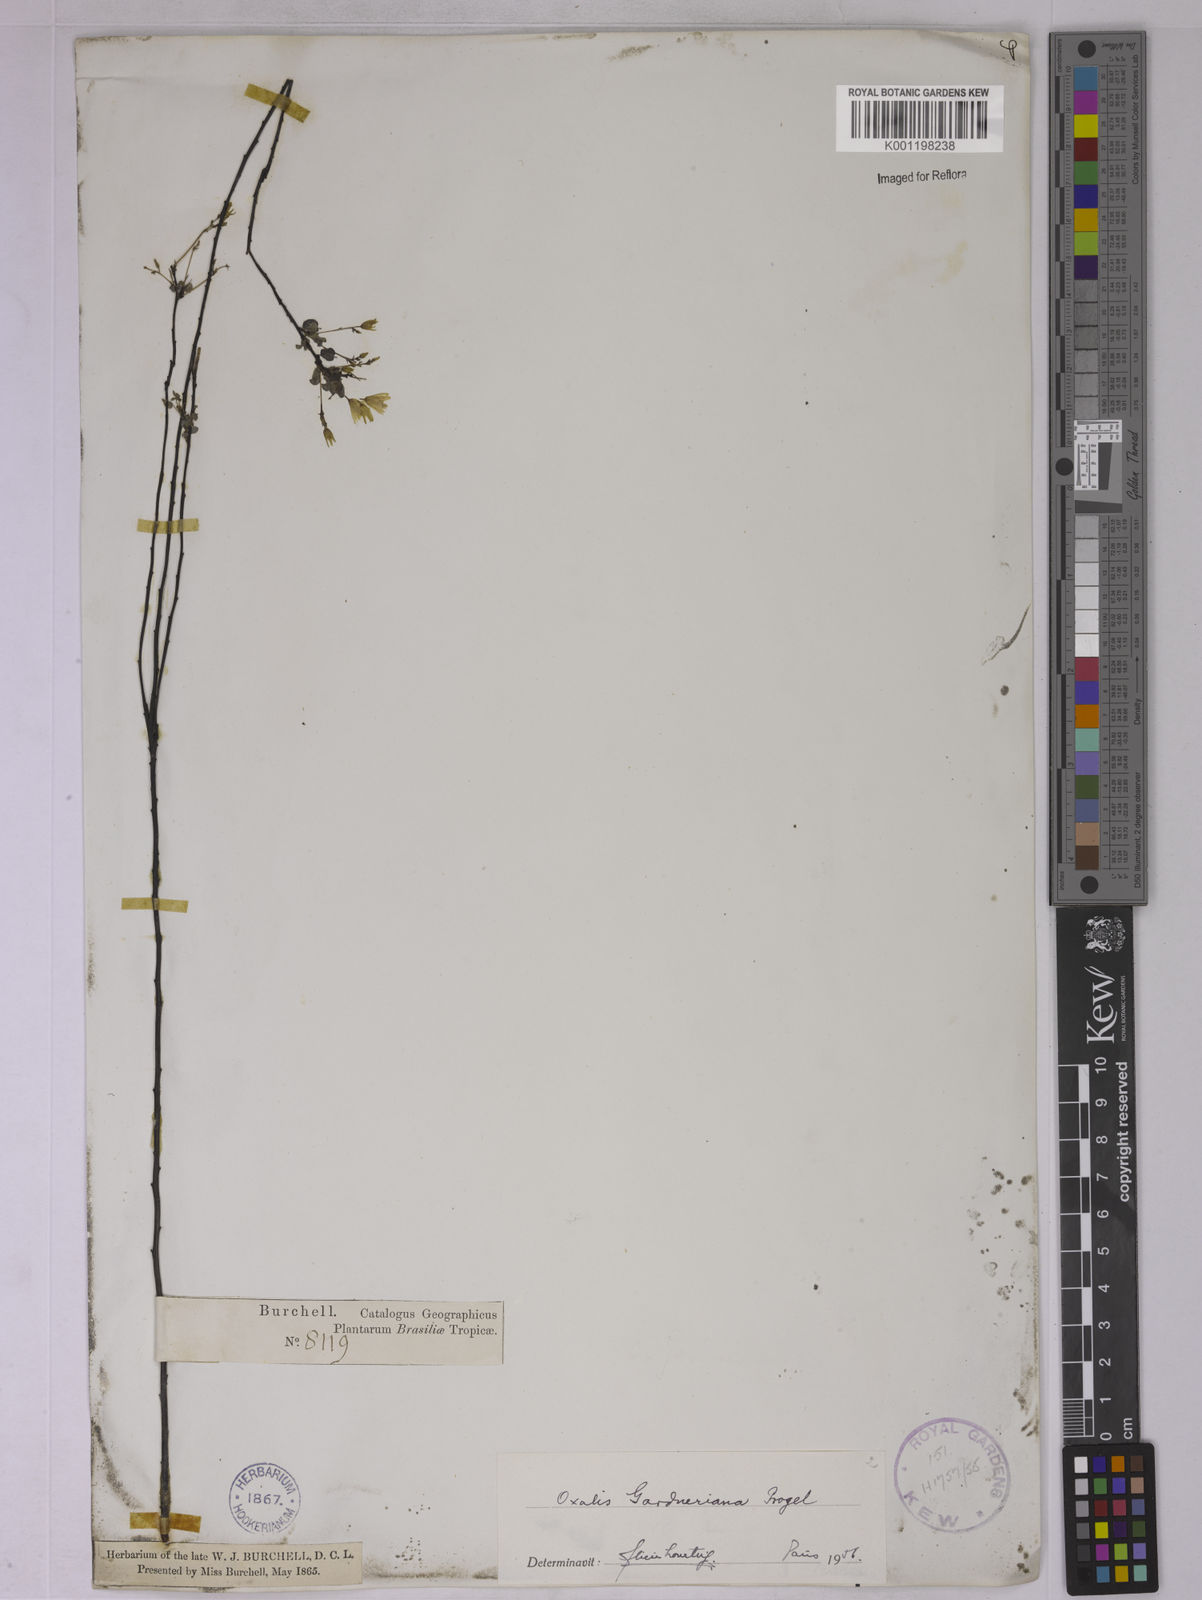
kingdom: Plantae
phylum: Tracheophyta
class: Magnoliopsida
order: Oxalidales
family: Oxalidaceae
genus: Oxalis
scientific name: Oxalis gardneriana
